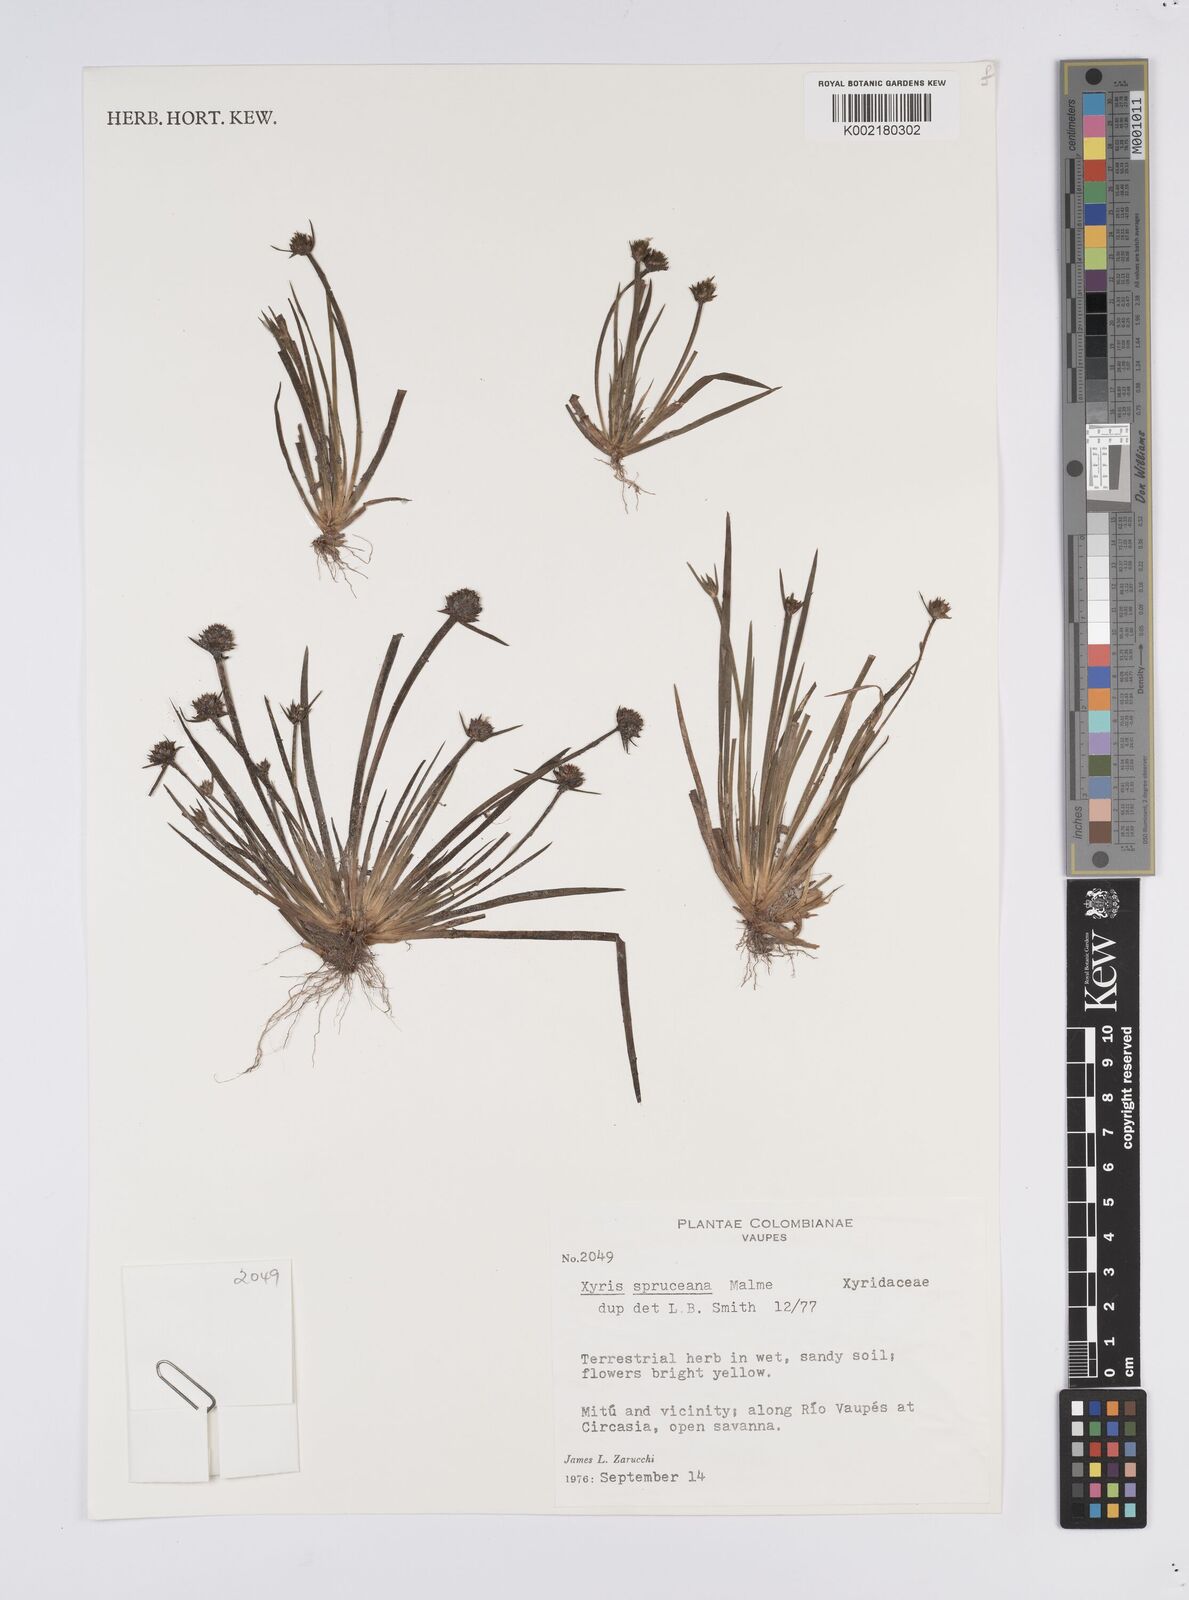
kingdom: Plantae
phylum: Tracheophyta
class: Liliopsida
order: Poales
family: Xyridaceae
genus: Xyris
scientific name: Xyris spruceana
